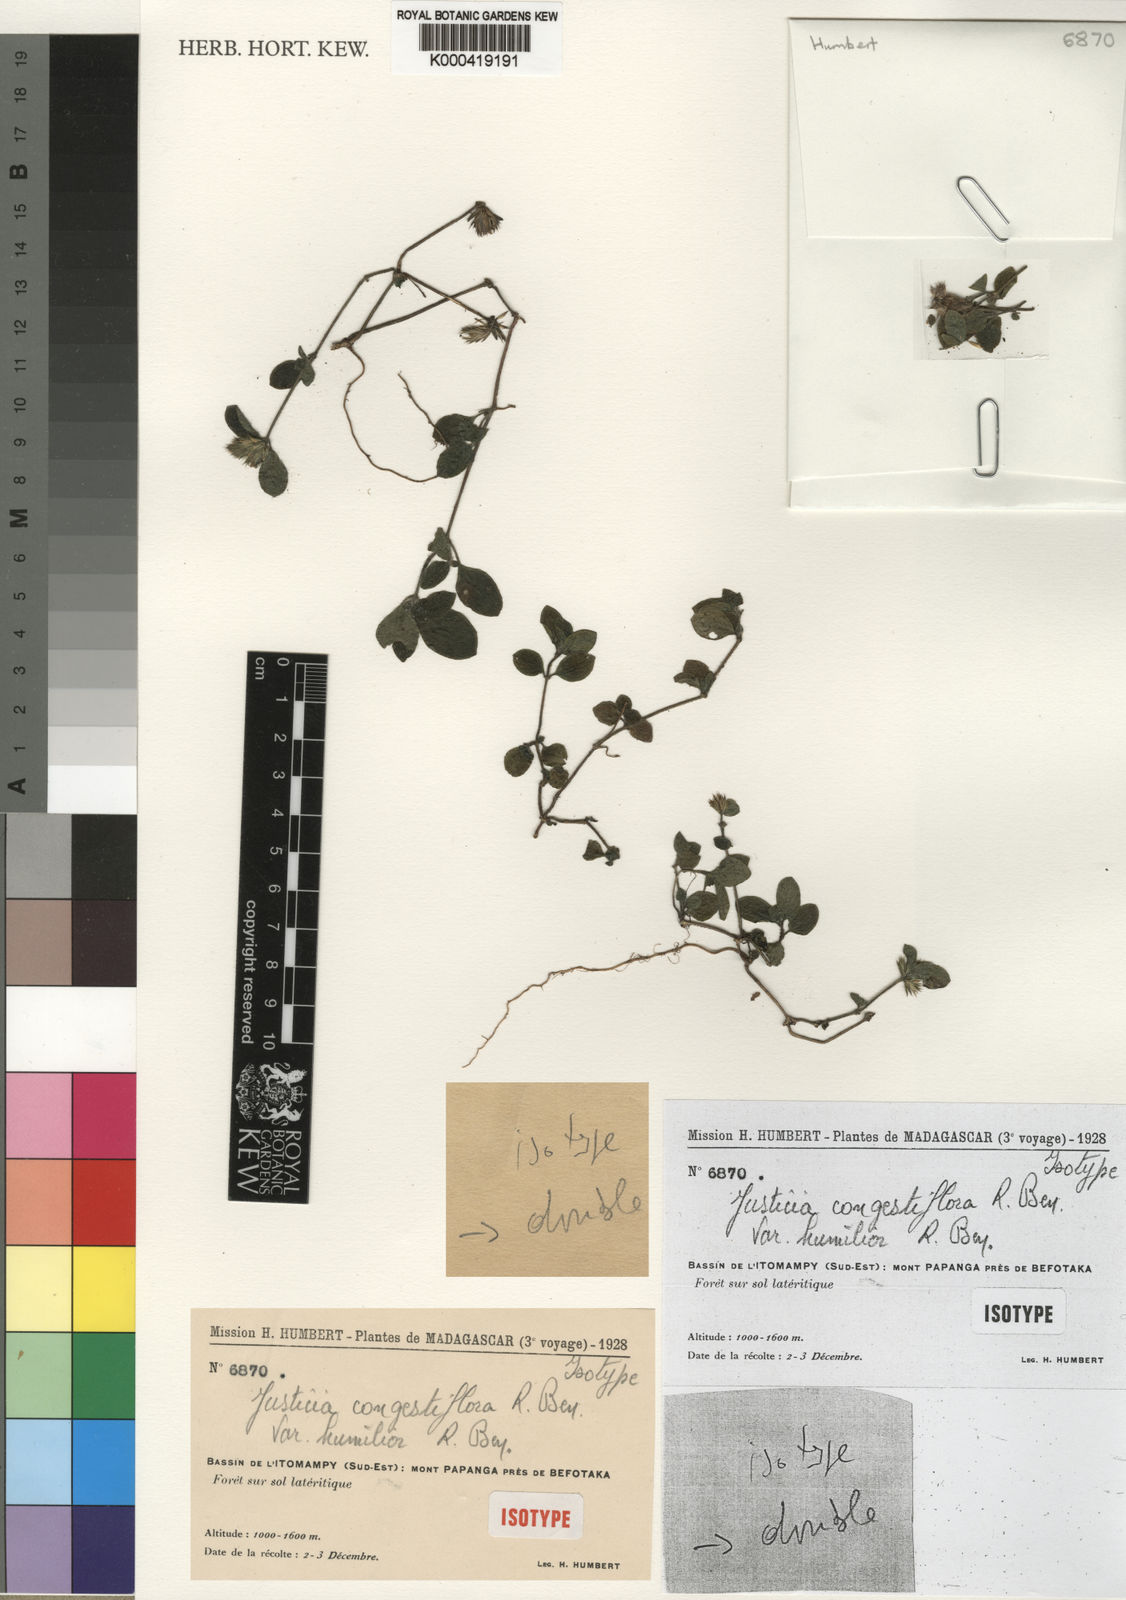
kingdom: Plantae
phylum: Tracheophyta
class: Magnoliopsida
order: Lamiales
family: Acanthaceae
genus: Justicia
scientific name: Justicia congestiflora
